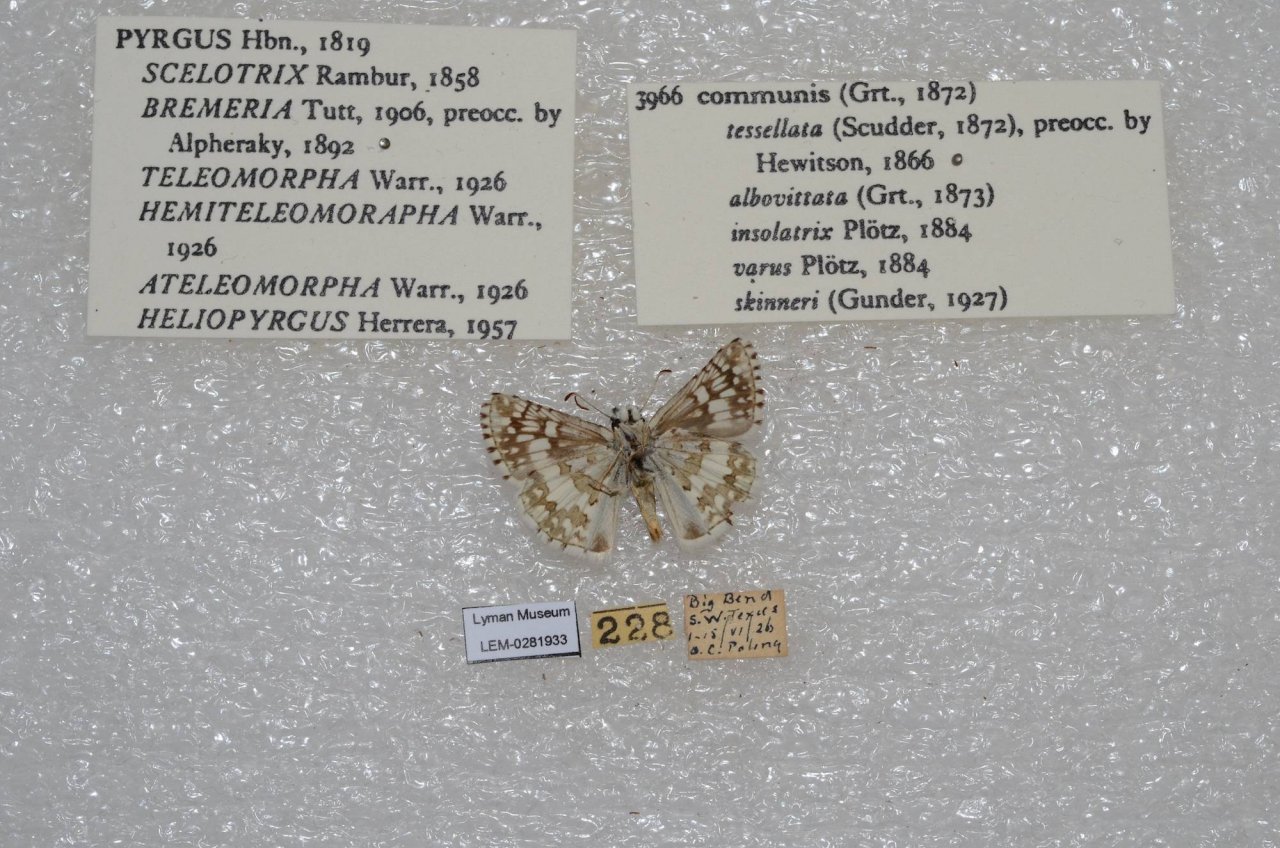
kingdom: Animalia
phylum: Arthropoda
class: Insecta
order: Lepidoptera
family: Hesperiidae
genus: Pyrgus
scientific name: Pyrgus communis
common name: Common Checkered-Skipper
